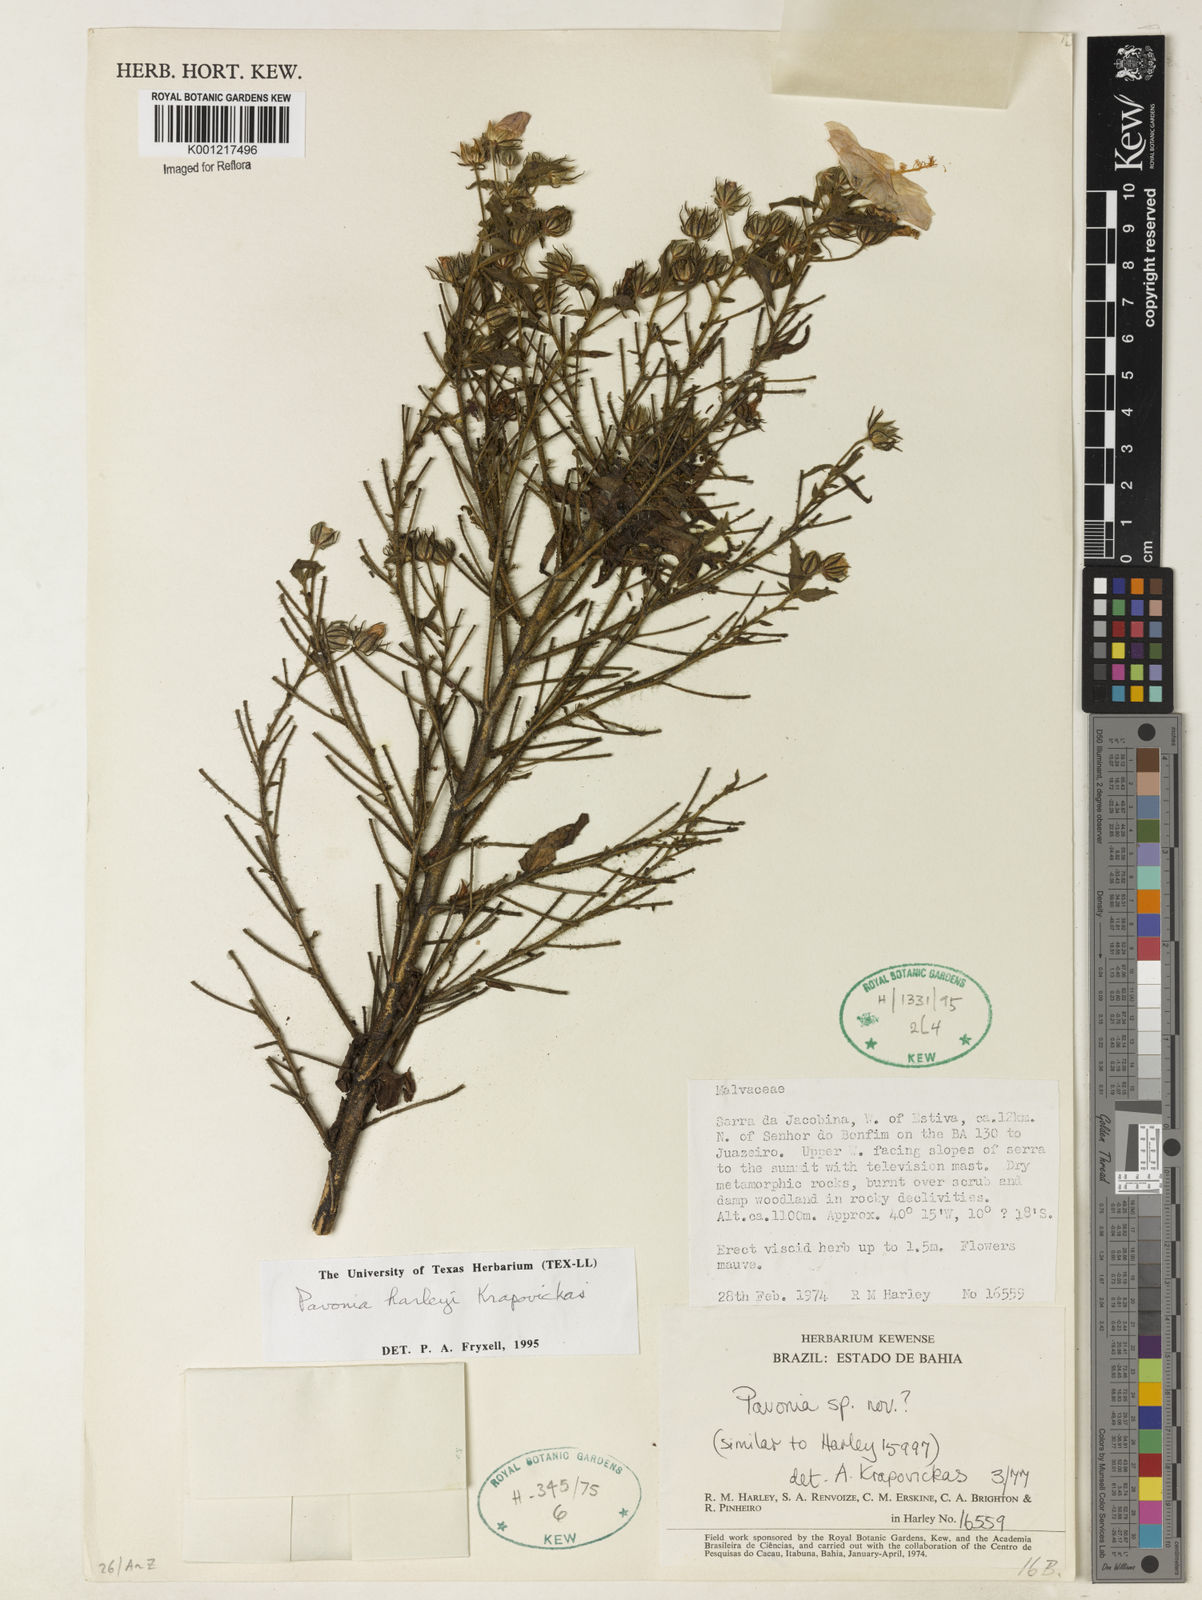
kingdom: Plantae
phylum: Tracheophyta
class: Magnoliopsida
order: Malvales
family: Malvaceae
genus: Pavonia
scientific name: Pavonia harleyi
